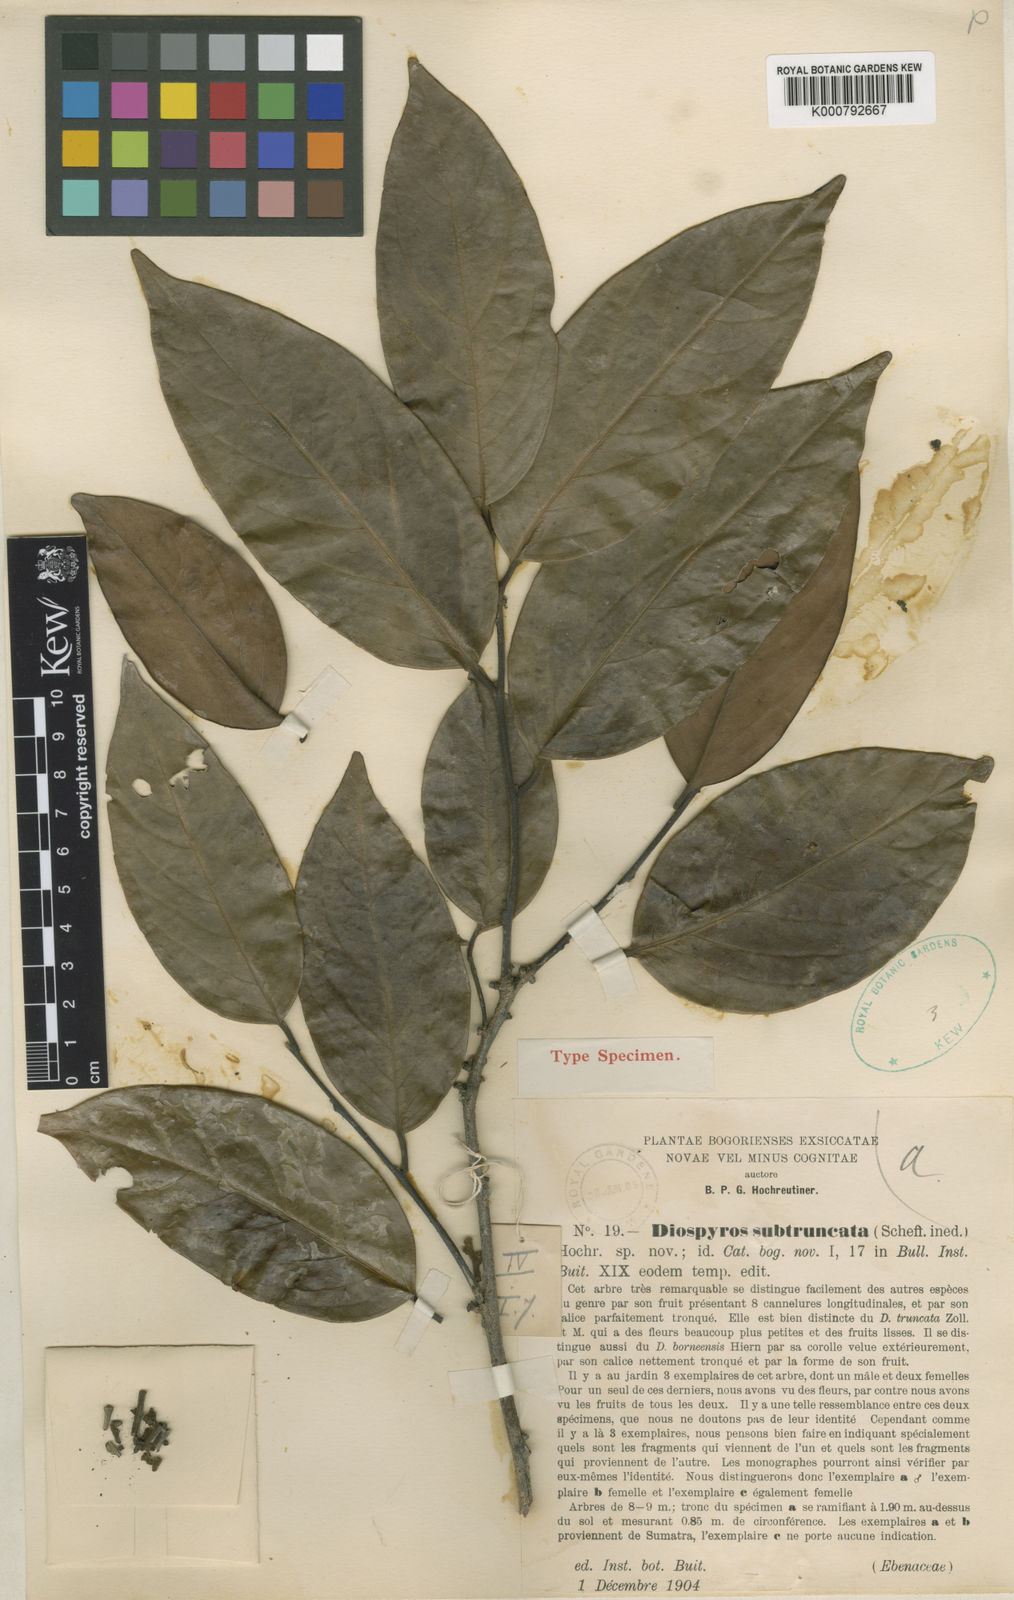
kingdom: Plantae
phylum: Tracheophyta
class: Magnoliopsida
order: Ericales
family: Ebenaceae
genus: Diospyros
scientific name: Diospyros subtruncata
